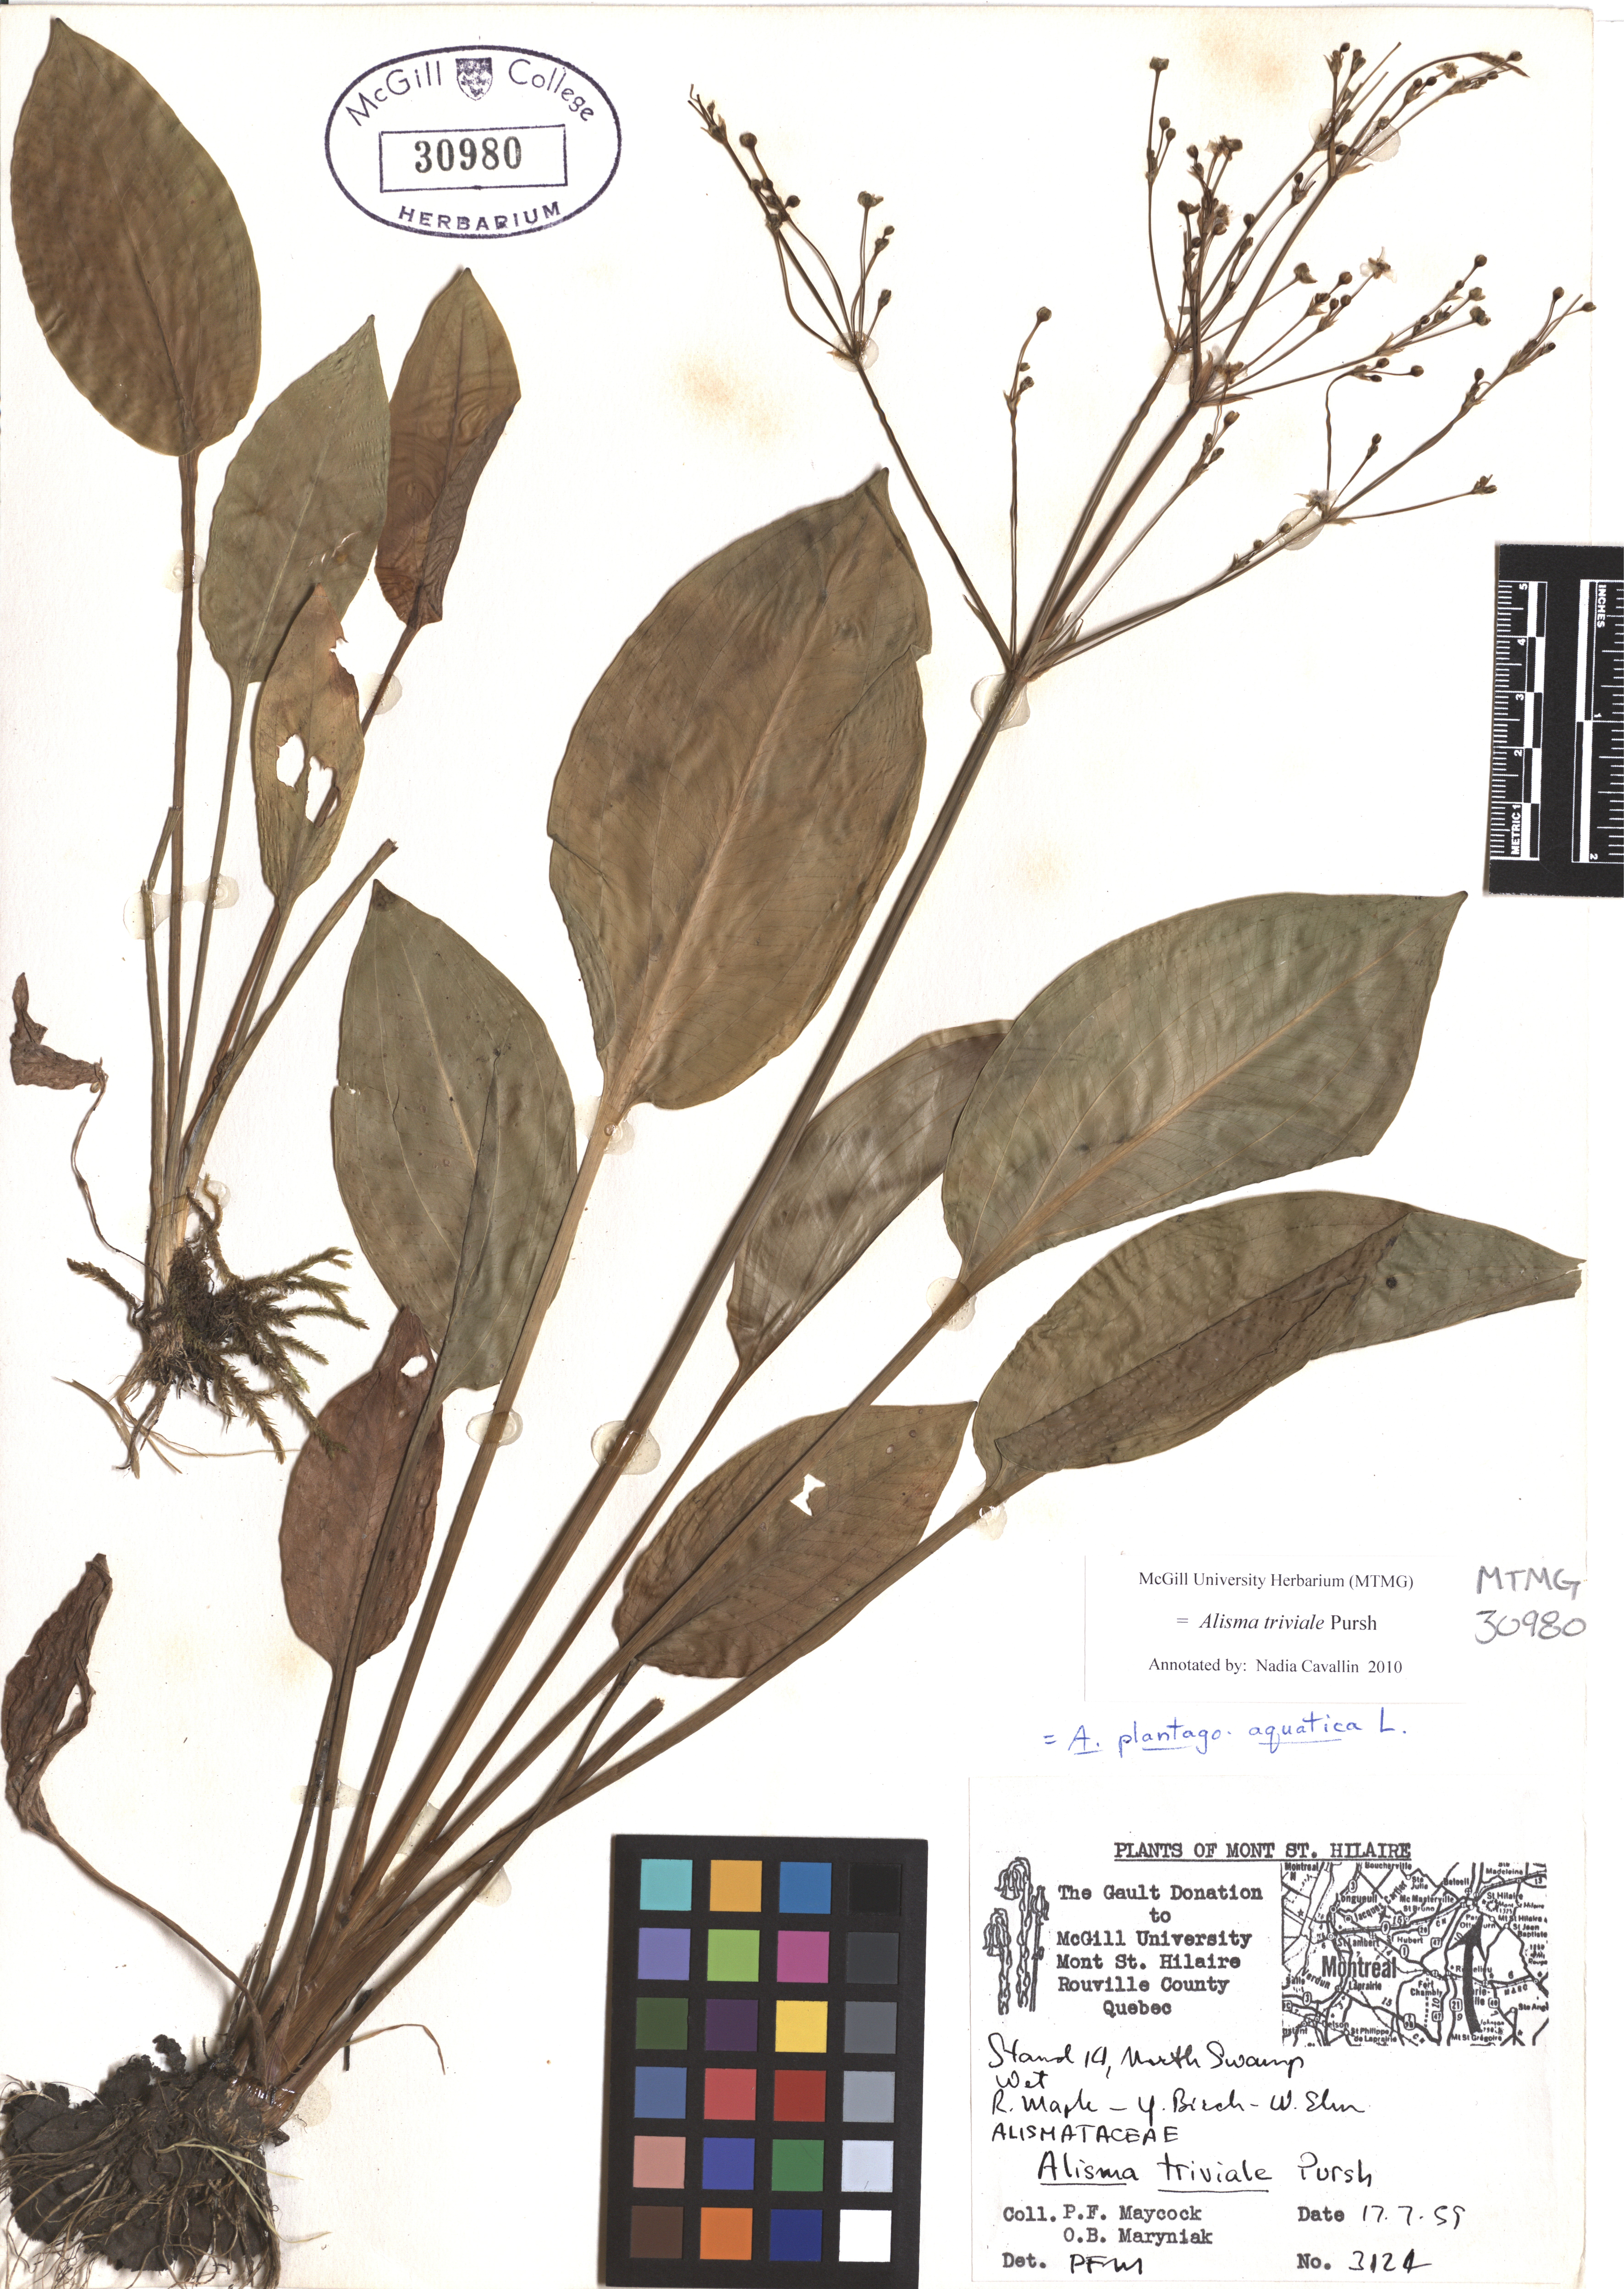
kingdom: Plantae
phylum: Tracheophyta
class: Liliopsida
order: Alismatales
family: Alismataceae
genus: Alisma
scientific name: Alisma triviale
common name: Northern water-plantain
